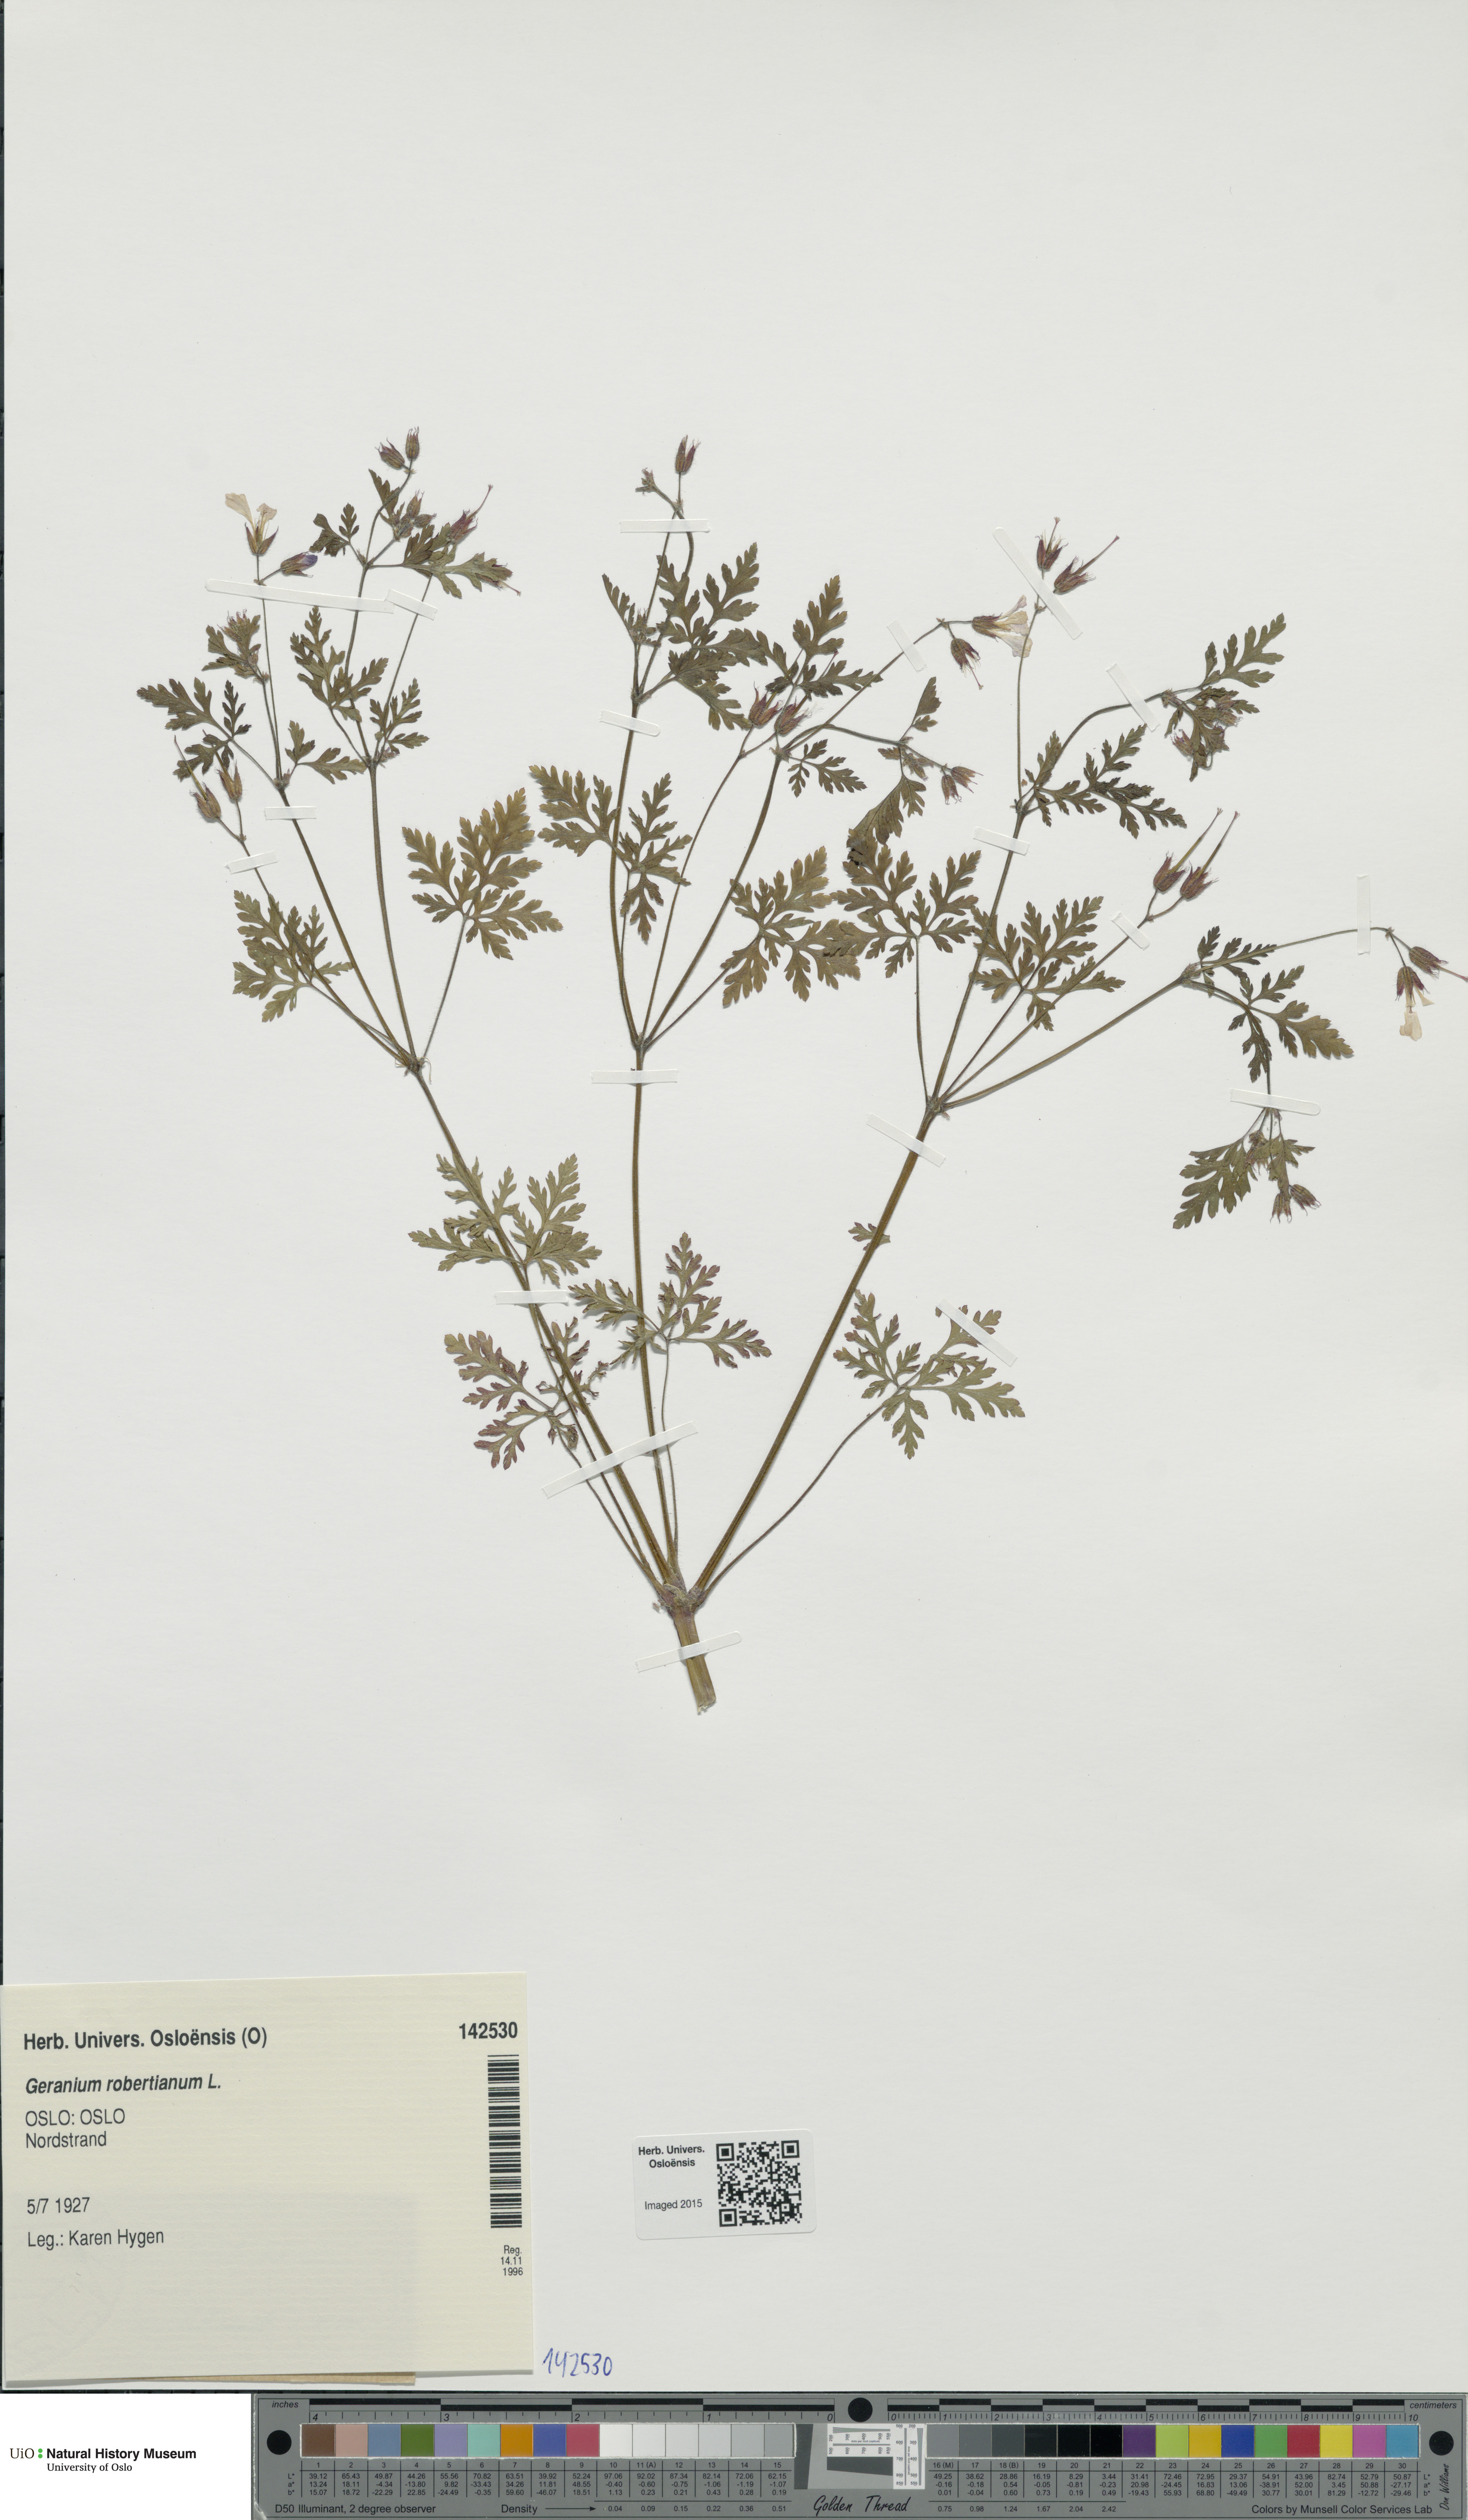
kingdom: Plantae
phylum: Tracheophyta
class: Magnoliopsida
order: Geraniales
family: Geraniaceae
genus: Geranium
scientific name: Geranium robertianum
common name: Herb-robert
